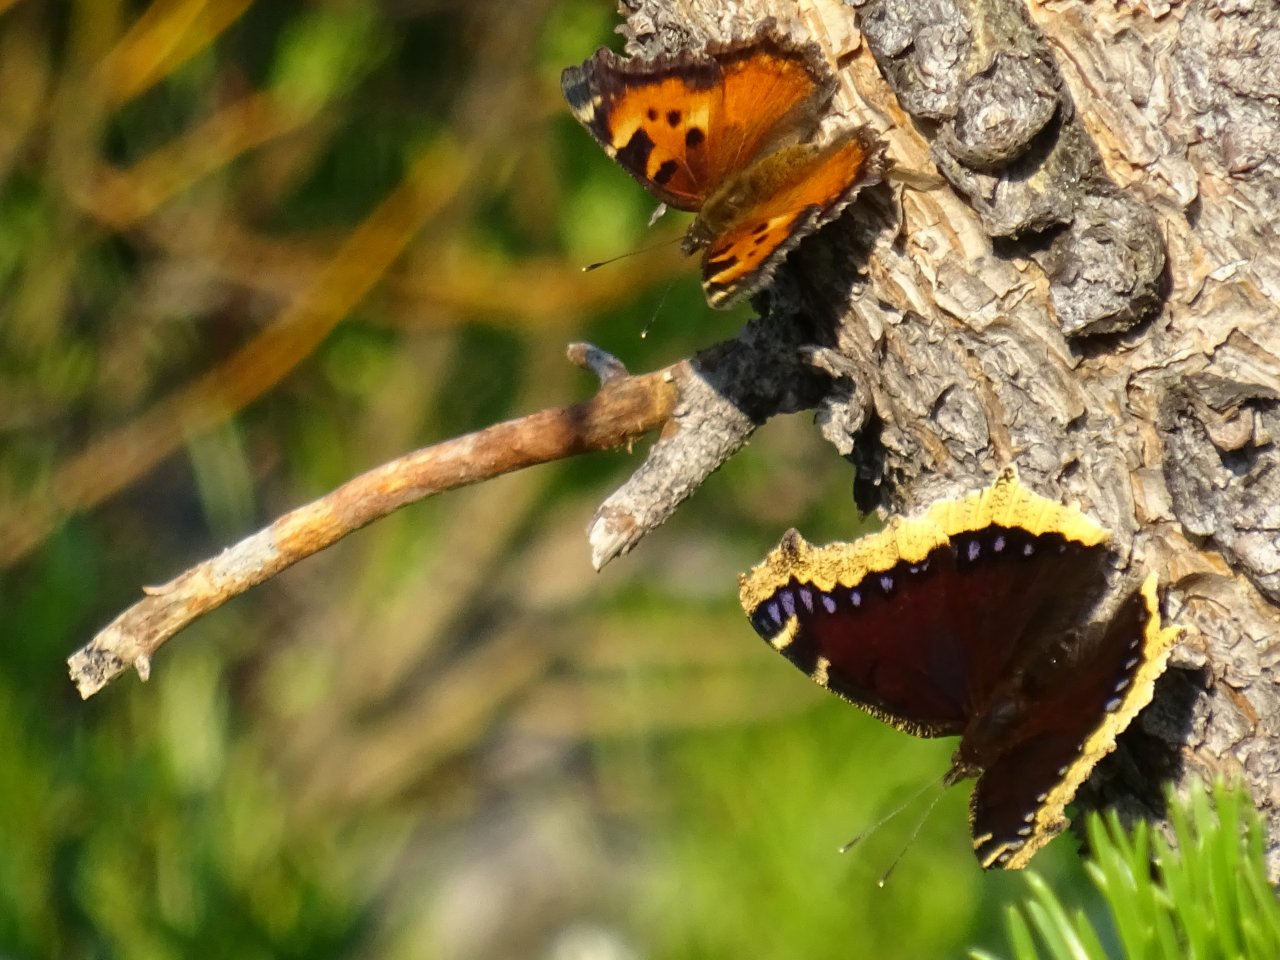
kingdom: Animalia
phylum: Arthropoda
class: Insecta
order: Lepidoptera
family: Nymphalidae
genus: Nymphalis
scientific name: Nymphalis antiopa
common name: Mourning Cloak
